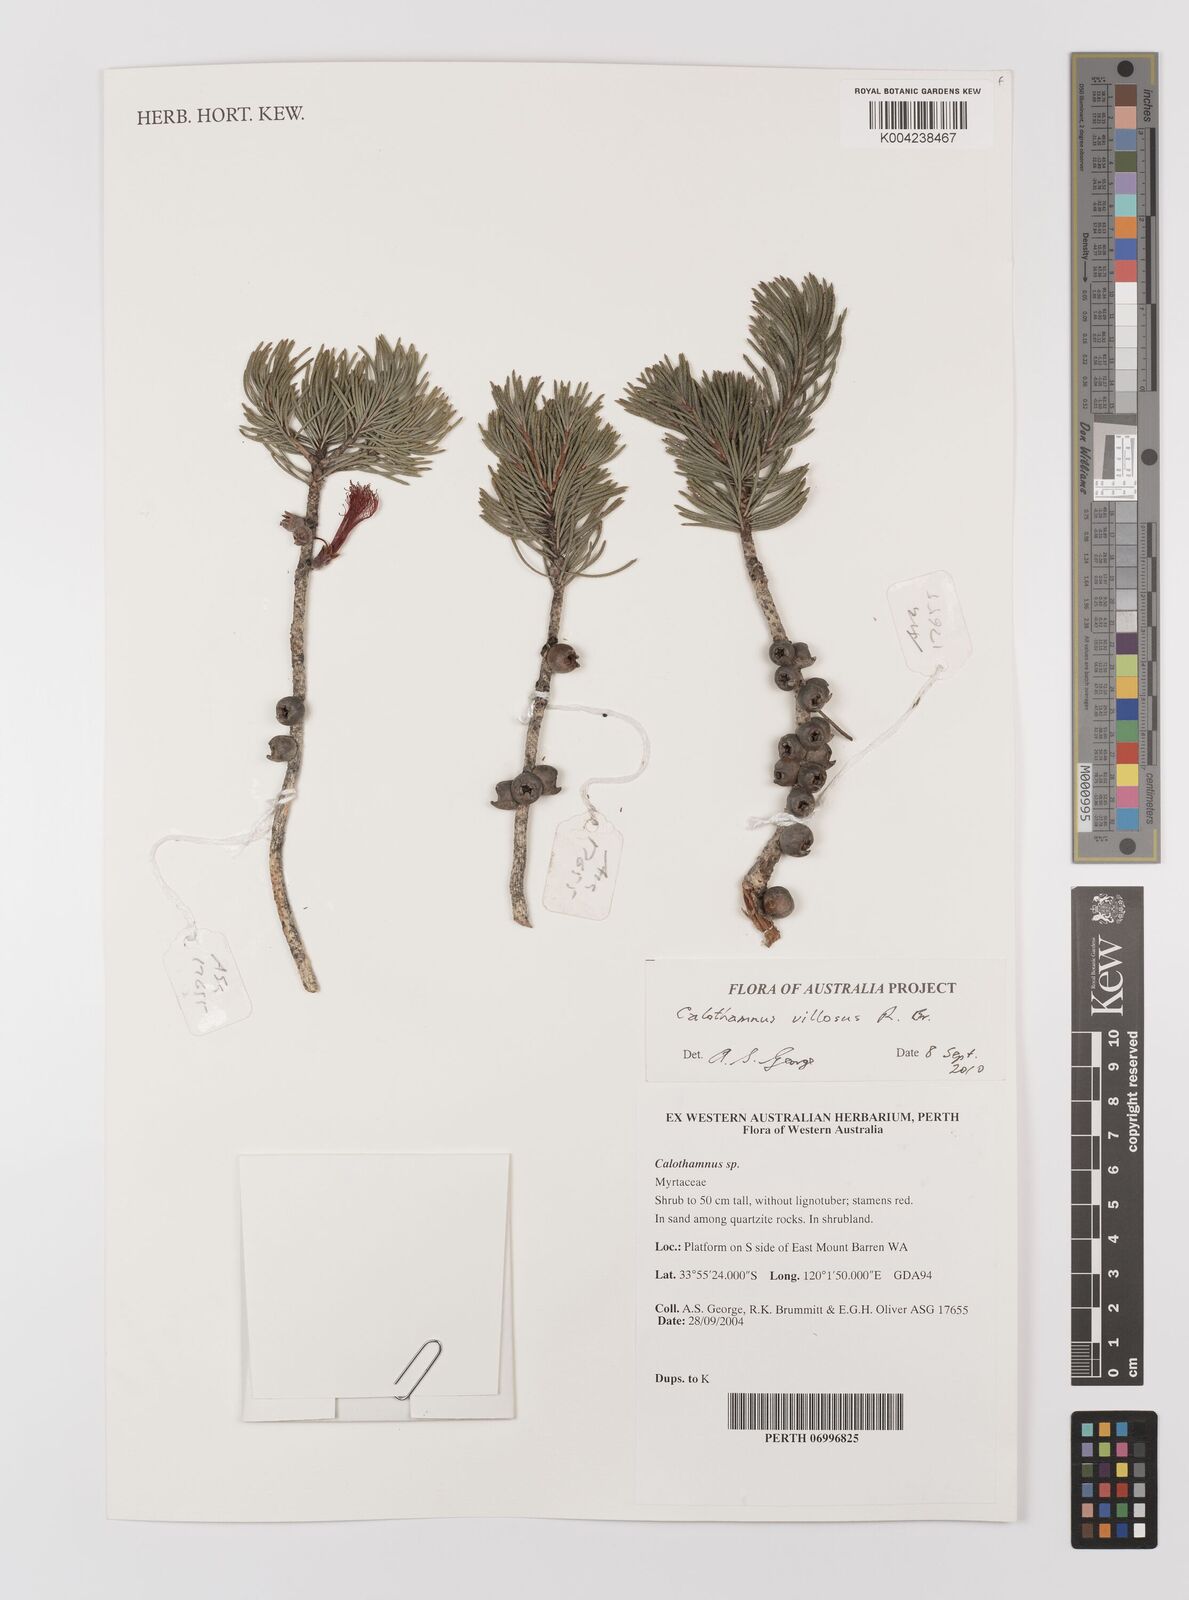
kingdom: Plantae
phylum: Tracheophyta
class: Magnoliopsida
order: Myrtales
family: Myrtaceae
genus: Melaleuca
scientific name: Melaleuca hislopii
